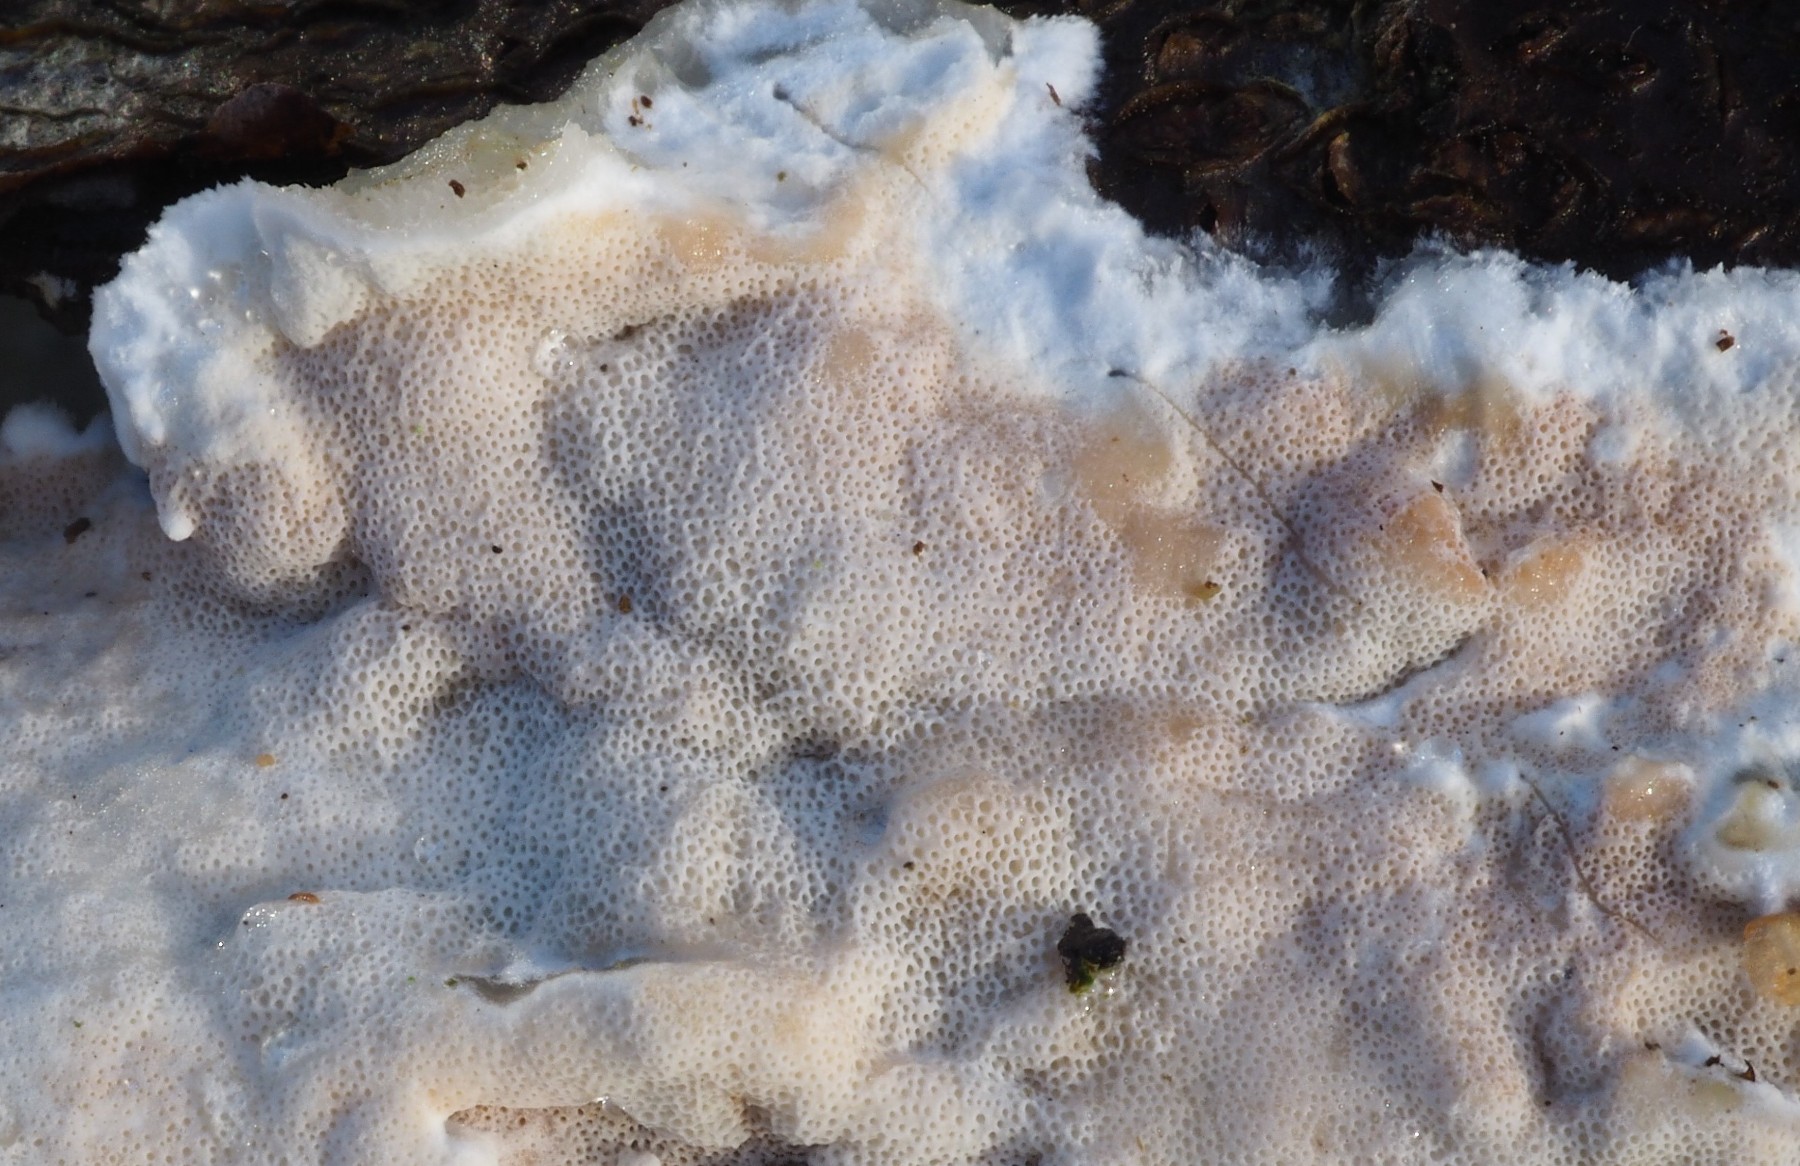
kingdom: Fungi
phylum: Basidiomycota
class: Agaricomycetes
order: Polyporales
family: Irpicaceae
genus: Vitreoporus
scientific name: Vitreoporus dichrous
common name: tofarvet foldporesvamp
